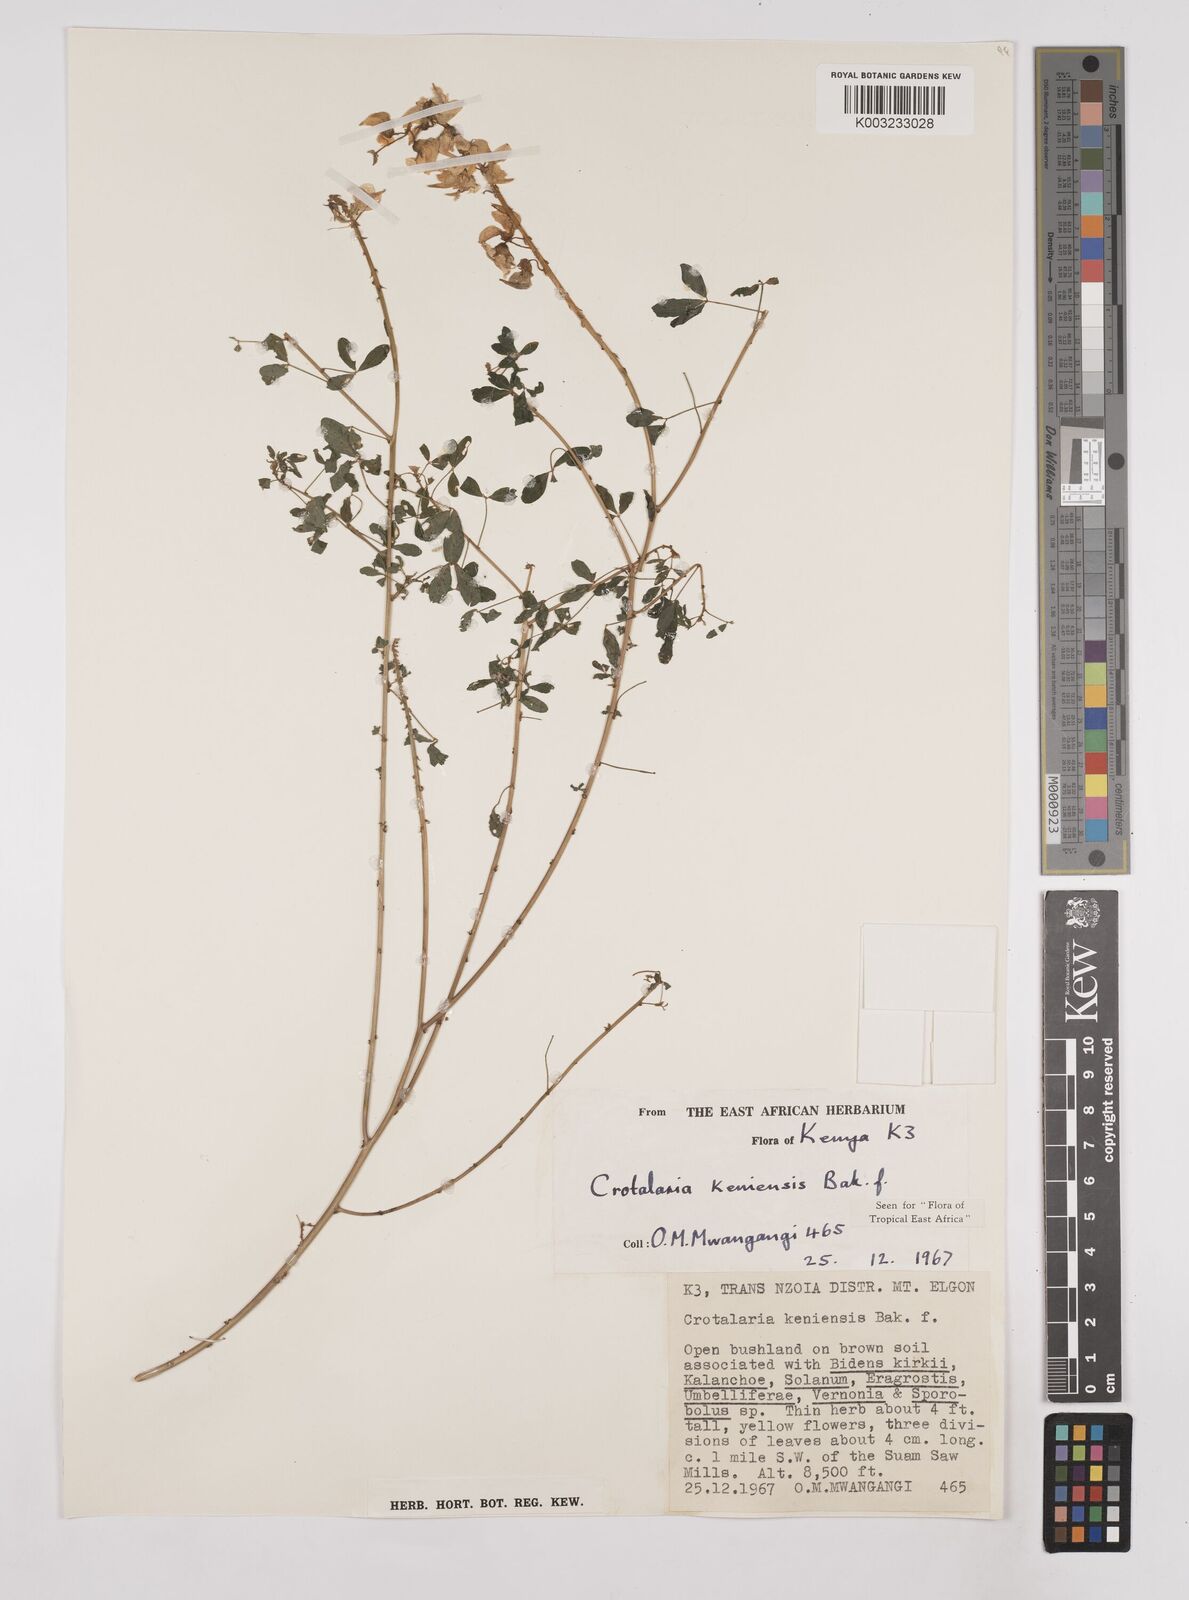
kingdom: Plantae
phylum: Tracheophyta
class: Magnoliopsida
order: Fabales
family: Fabaceae
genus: Crotalaria
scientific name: Crotalaria keniensis
